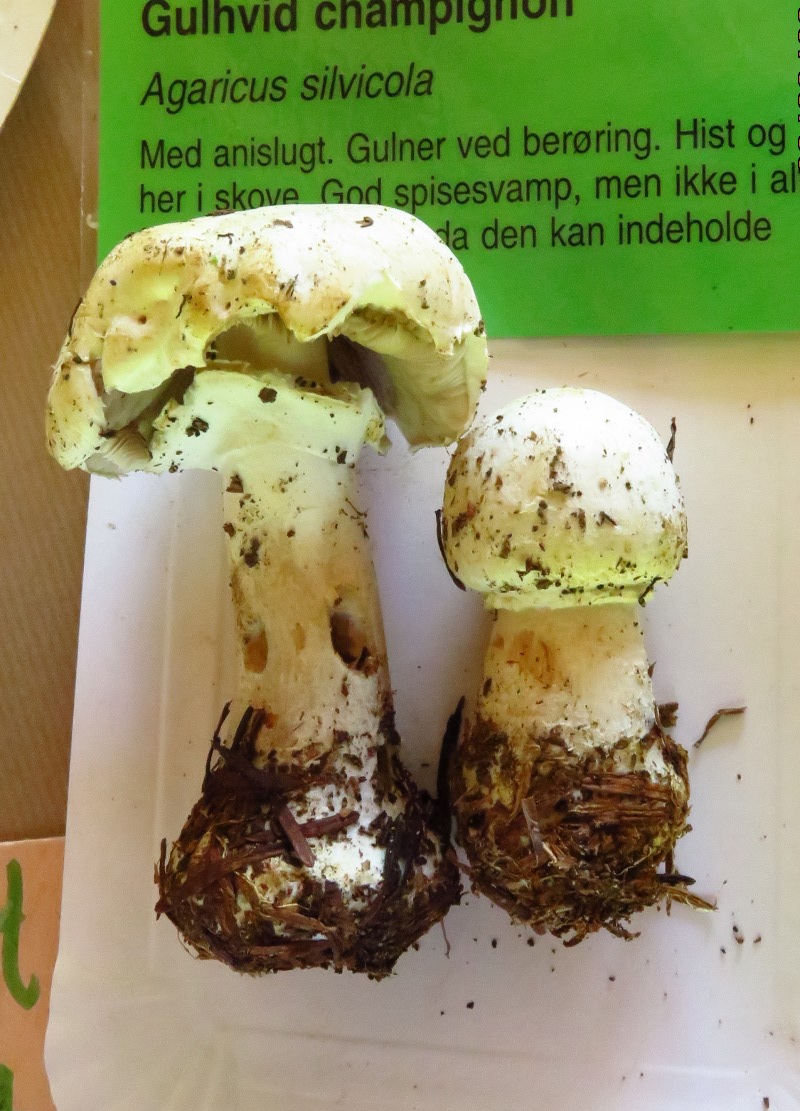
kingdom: Fungi
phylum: Basidiomycota
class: Agaricomycetes
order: Agaricales
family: Agaricaceae
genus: Agaricus
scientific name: Agaricus sylvicola
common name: gulhvid champignon
